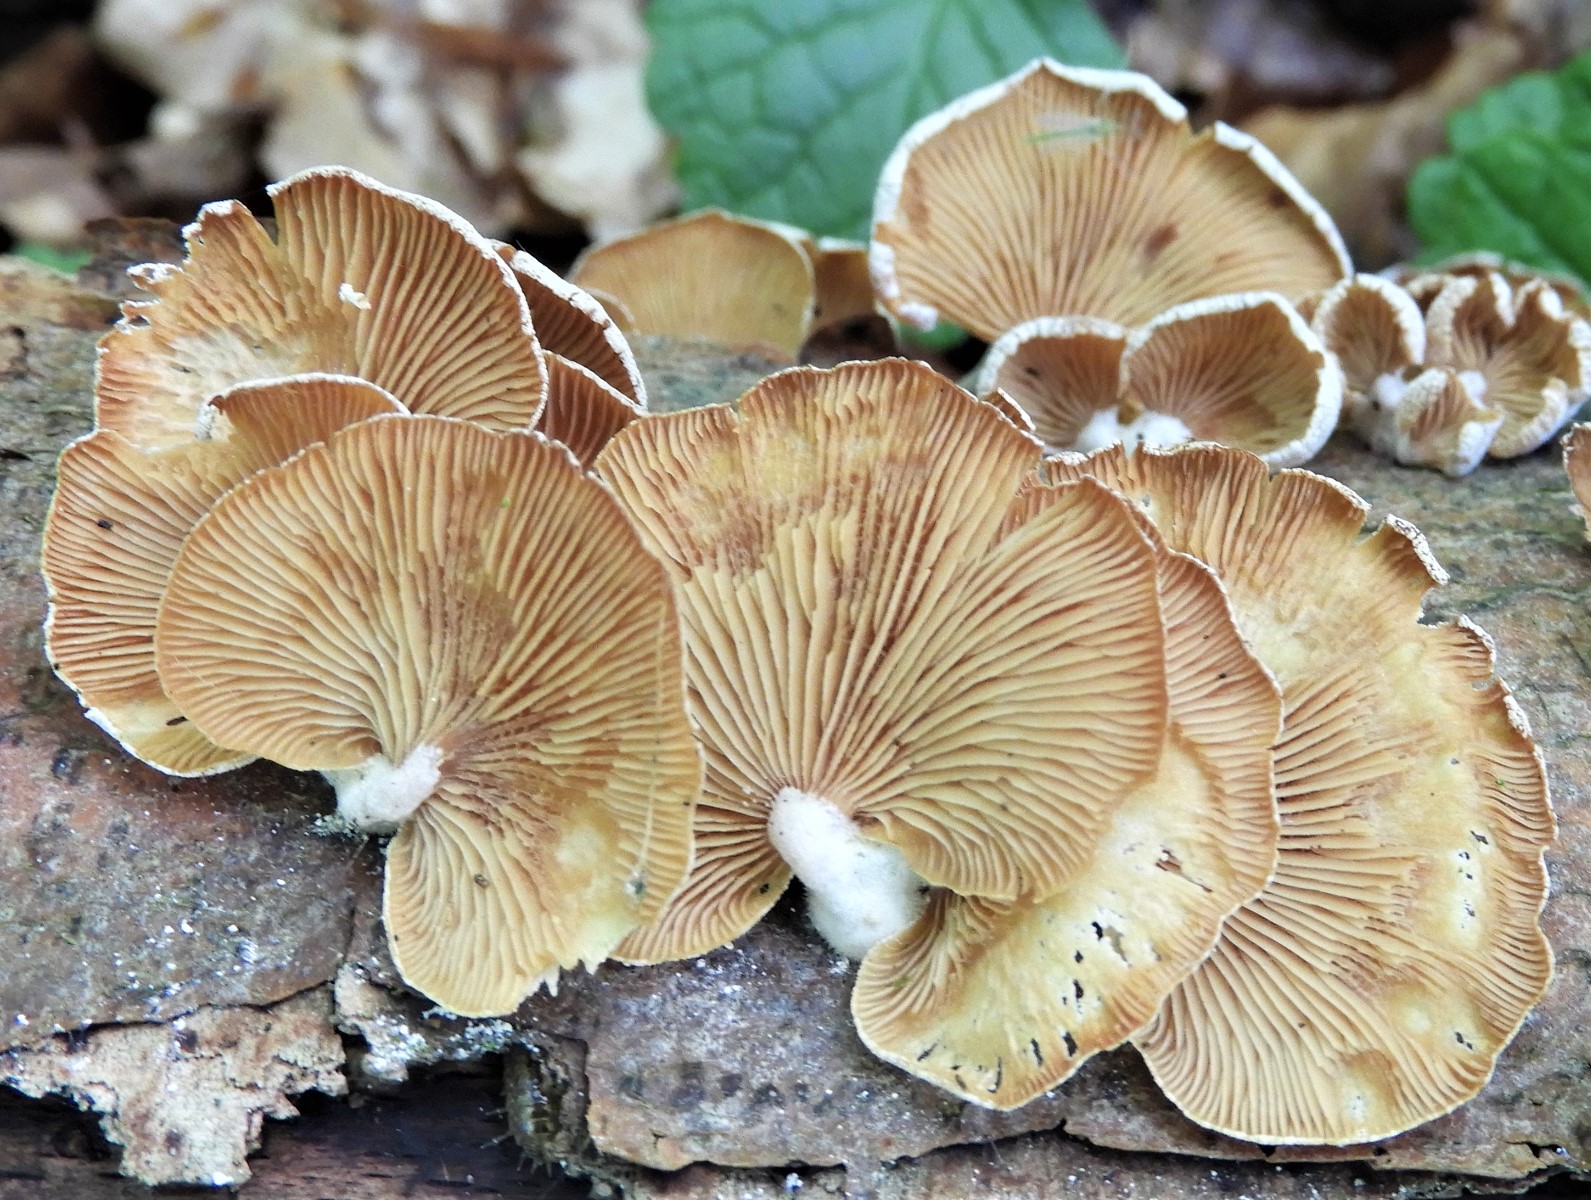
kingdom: Fungi
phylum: Basidiomycota
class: Agaricomycetes
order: Agaricales
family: Mycenaceae
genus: Panellus
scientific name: Panellus stipticus
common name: kliddet epaulethat
